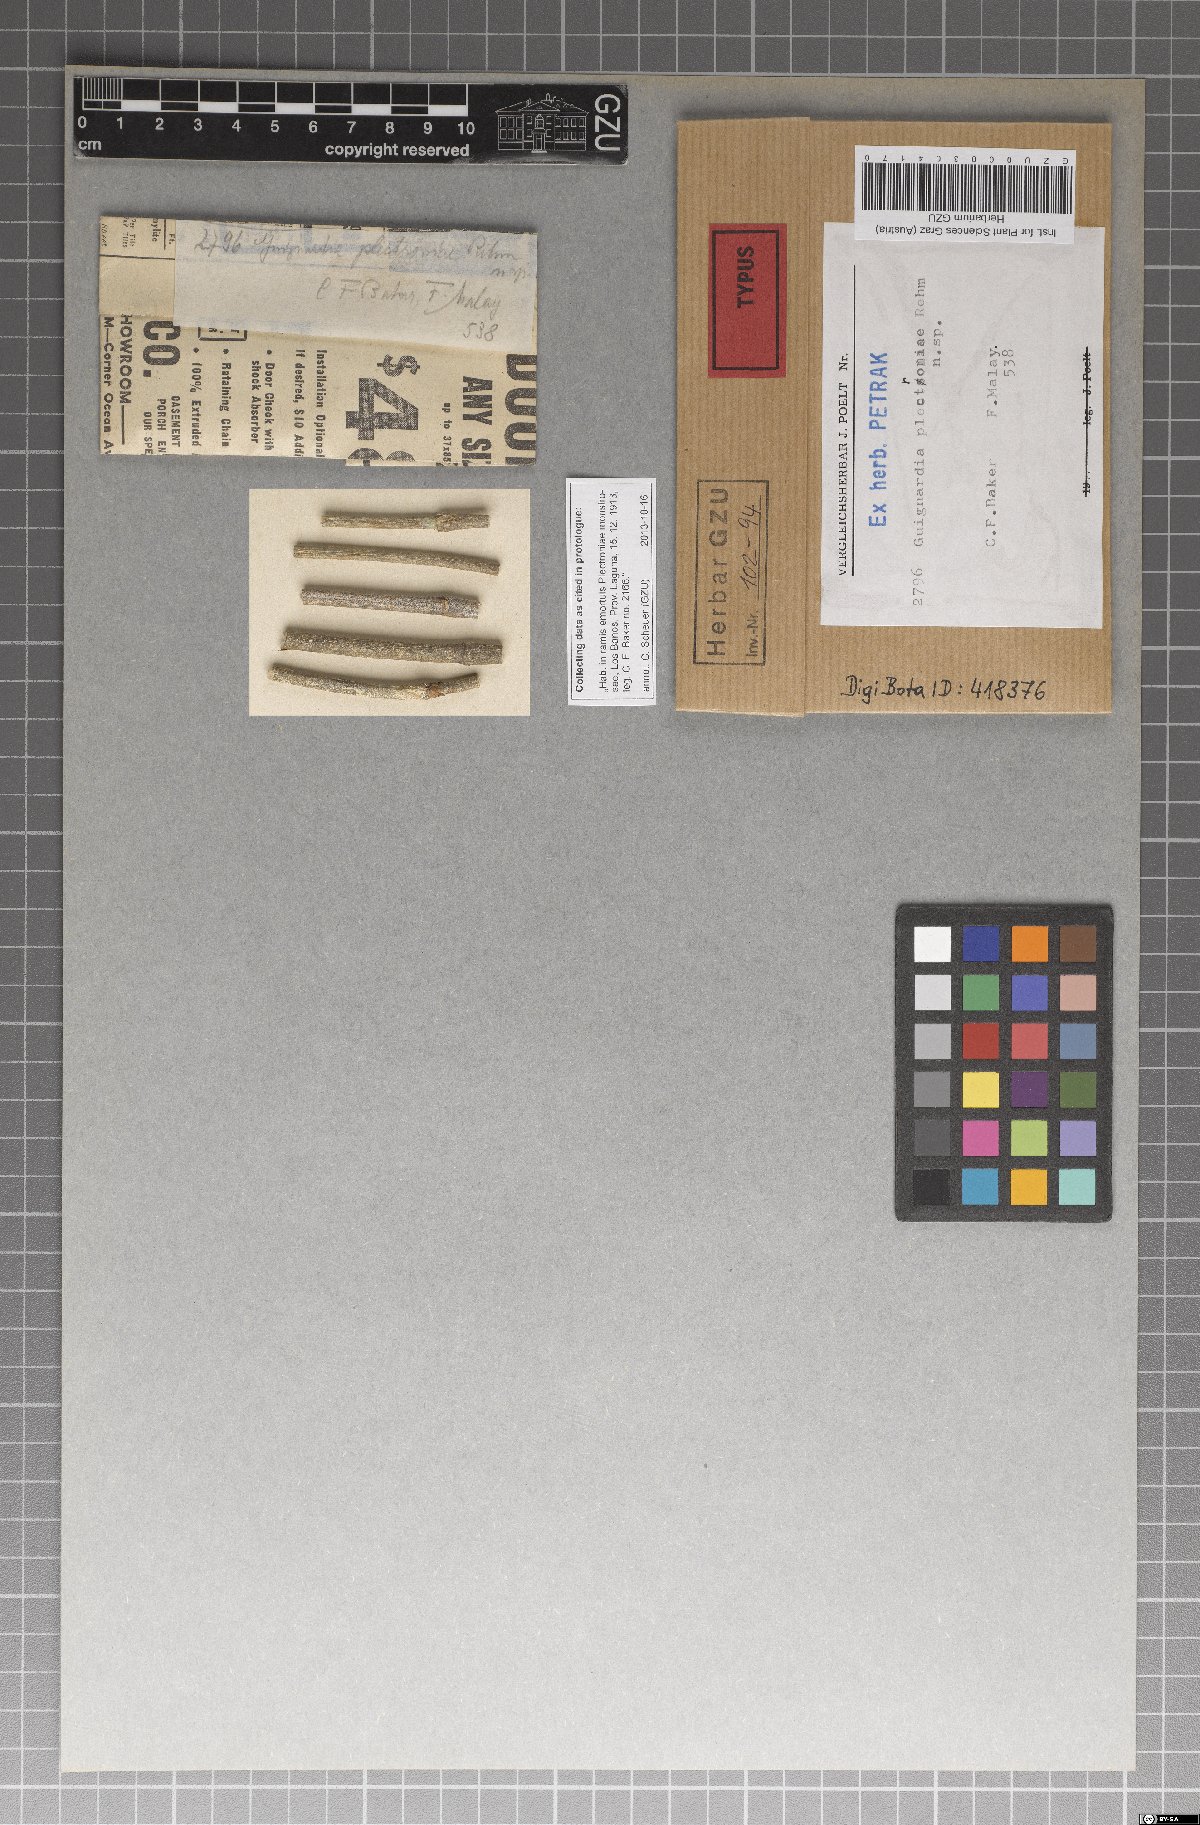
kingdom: Fungi
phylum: Ascomycota
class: Dothideomycetes
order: Botryosphaeriales
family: Phyllostictaceae
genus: Guignardia
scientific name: Guignardia plectroniae
